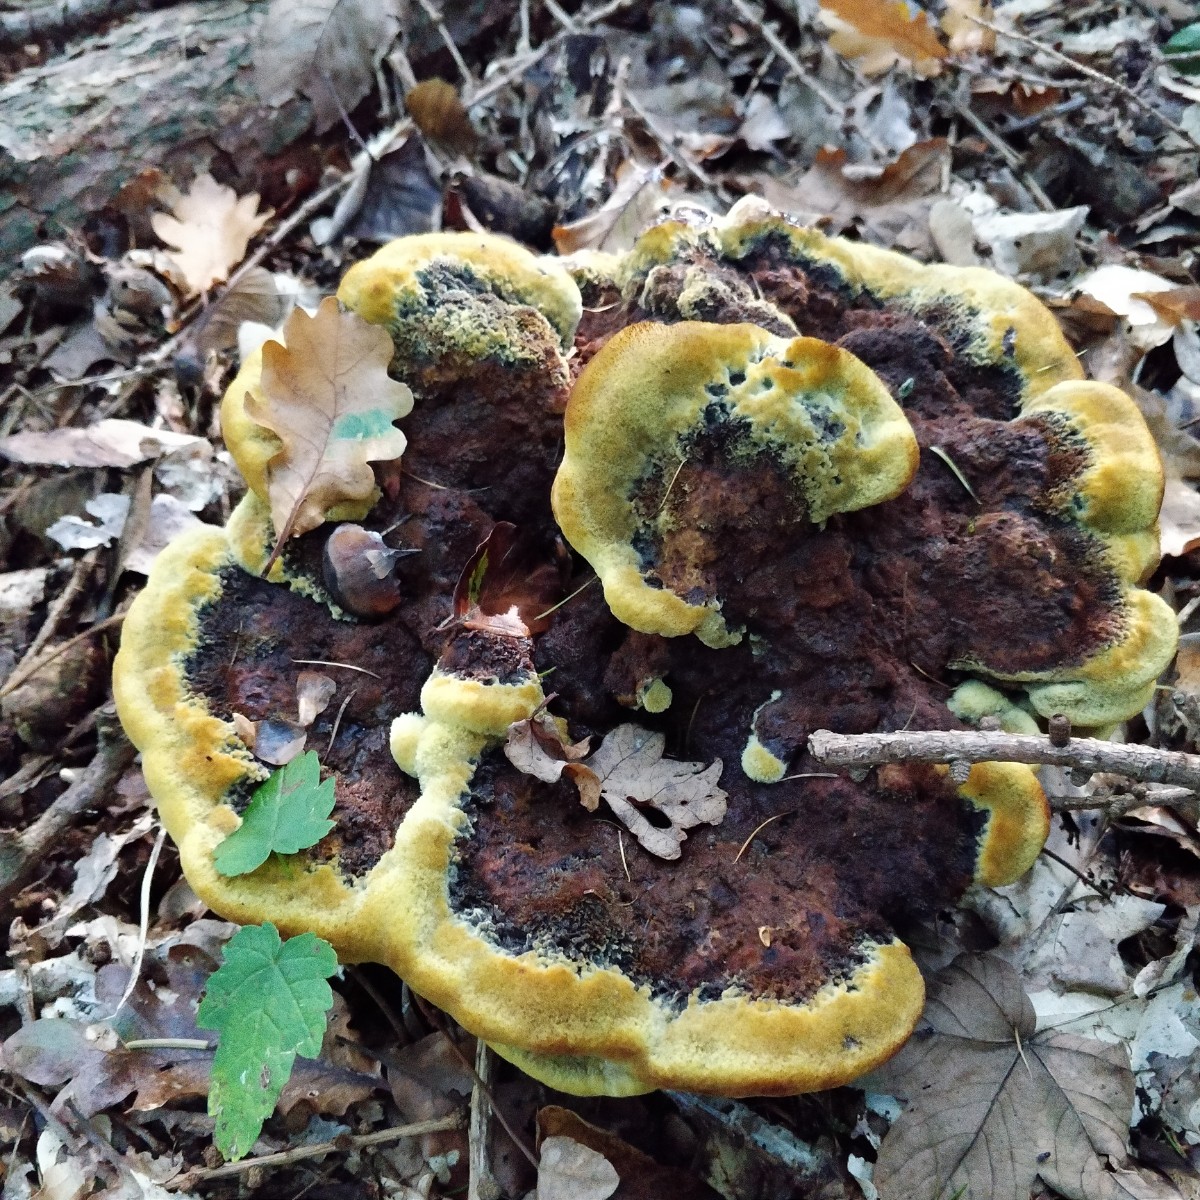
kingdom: Fungi
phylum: Basidiomycota
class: Agaricomycetes
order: Polyporales
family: Laetiporaceae
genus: Phaeolus
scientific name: Phaeolus
